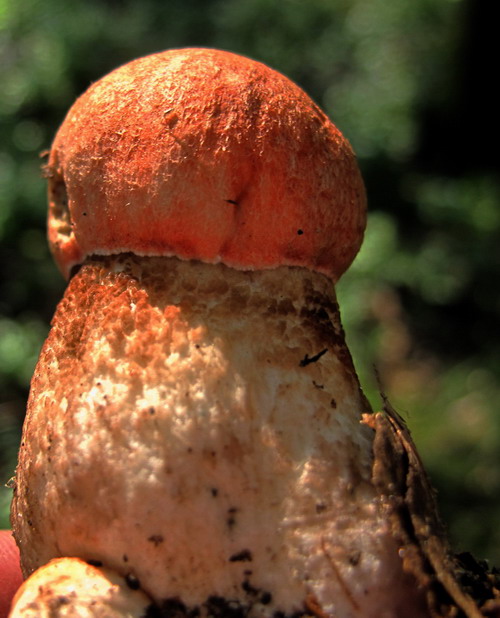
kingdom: Fungi
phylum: Basidiomycota
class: Agaricomycetes
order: Boletales
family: Boletaceae
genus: Leccinum
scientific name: Leccinum aurantiacum
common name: rustrød skælrørhat
